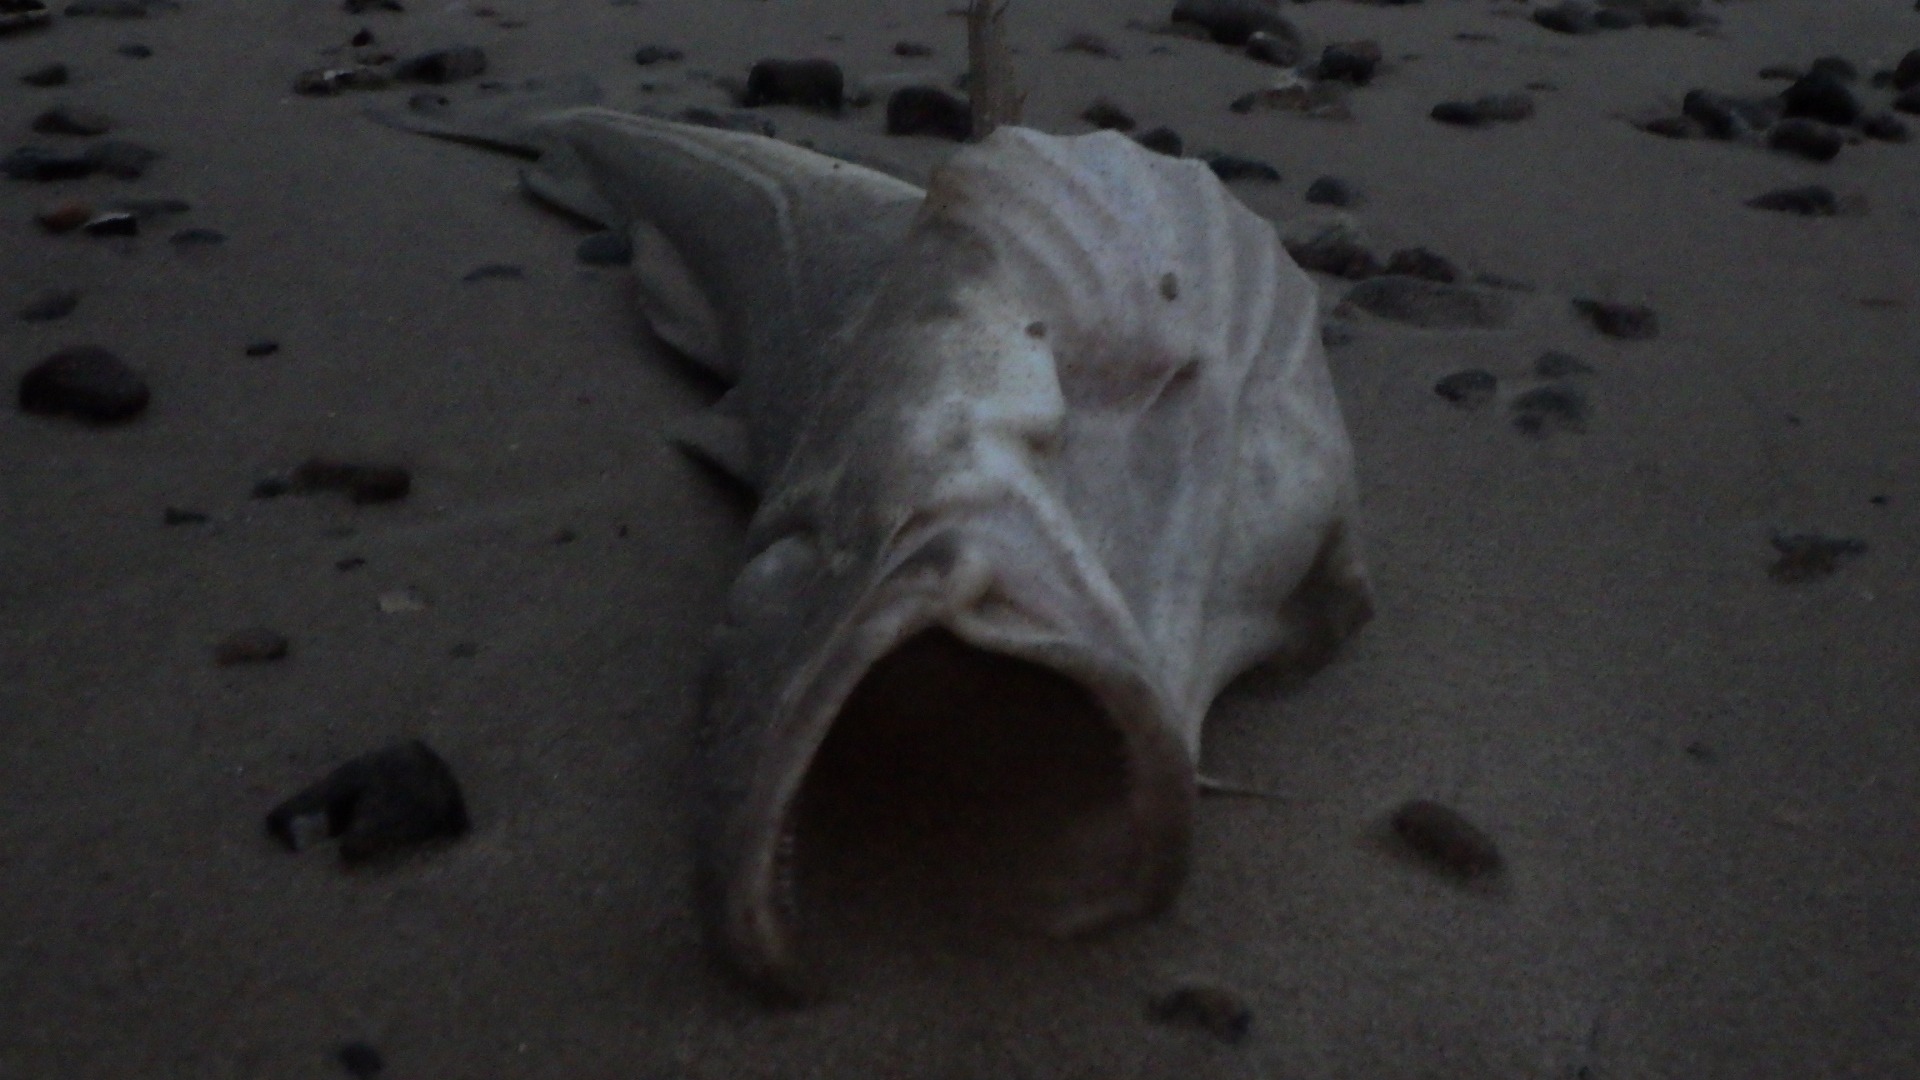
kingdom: Animalia
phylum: Chordata
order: Gadiformes
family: Gadidae
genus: Gadus
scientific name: Gadus morhua
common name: Torsk
